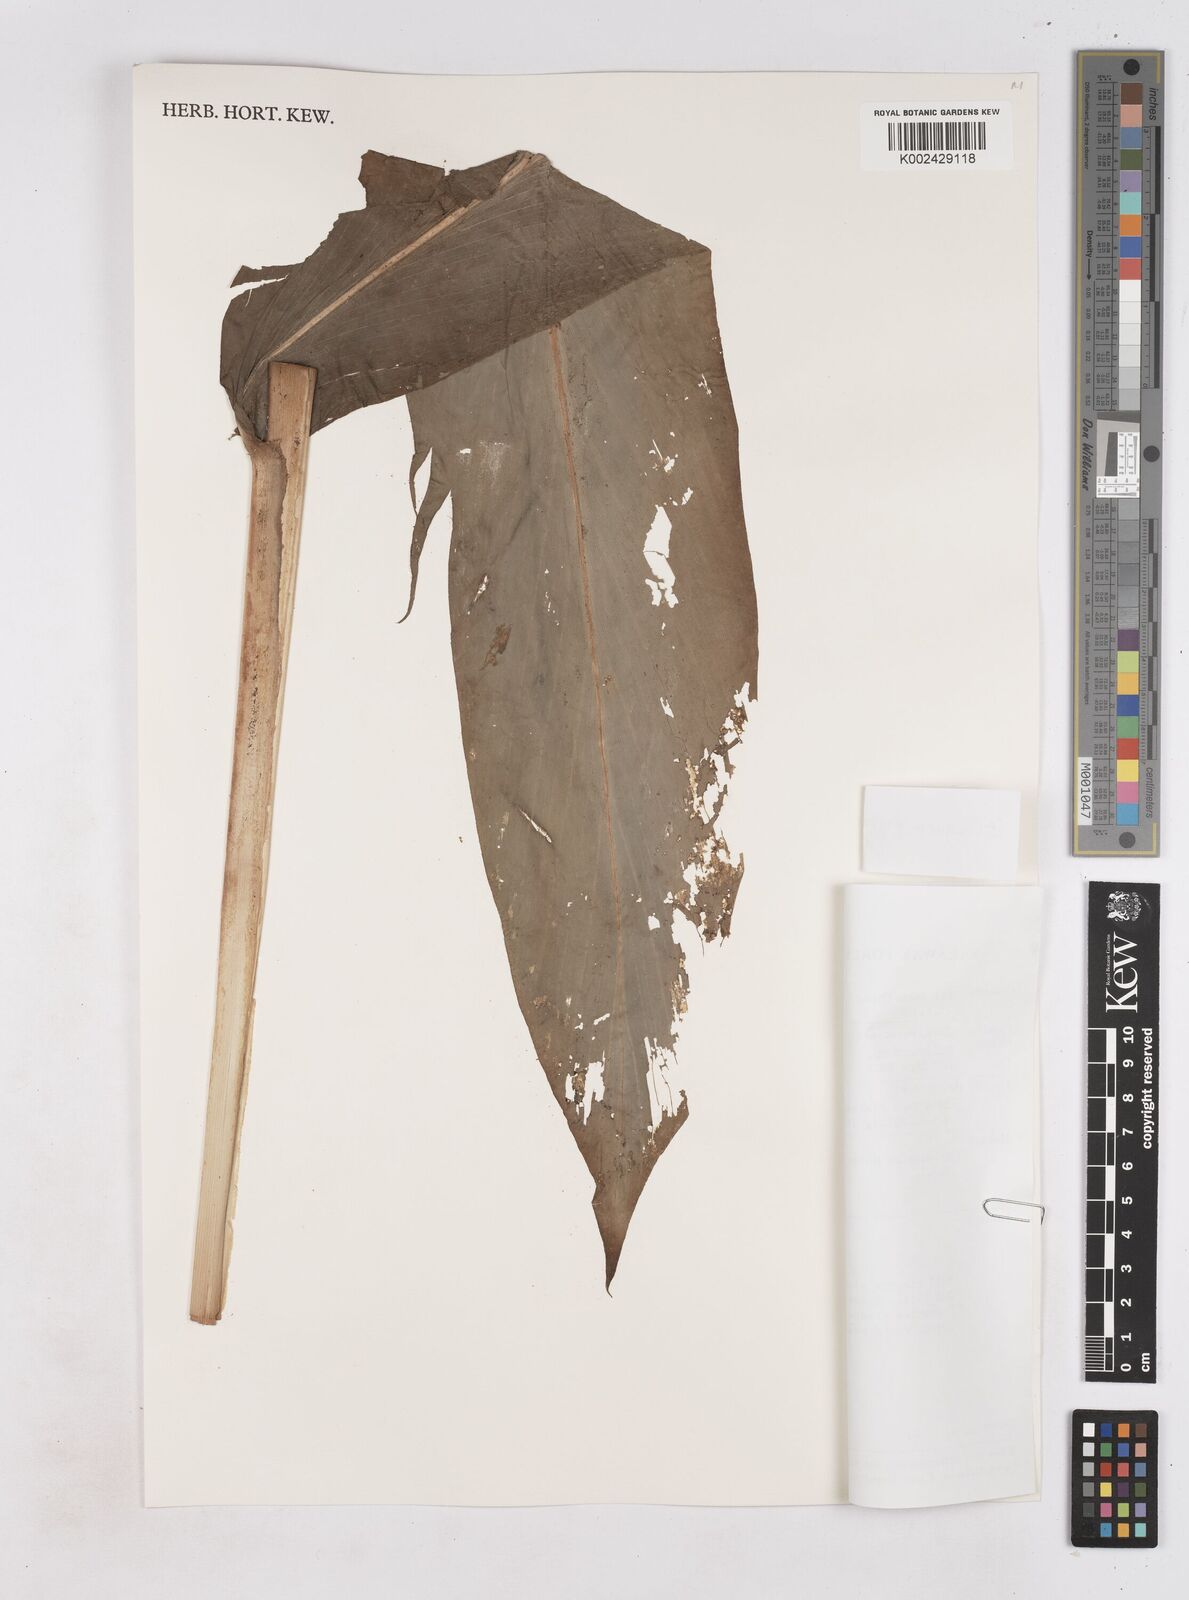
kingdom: Plantae
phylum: Tracheophyta
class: Liliopsida
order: Zingiberales
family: Zingiberaceae
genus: Zingiber
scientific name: Zingiber kelabitianum
